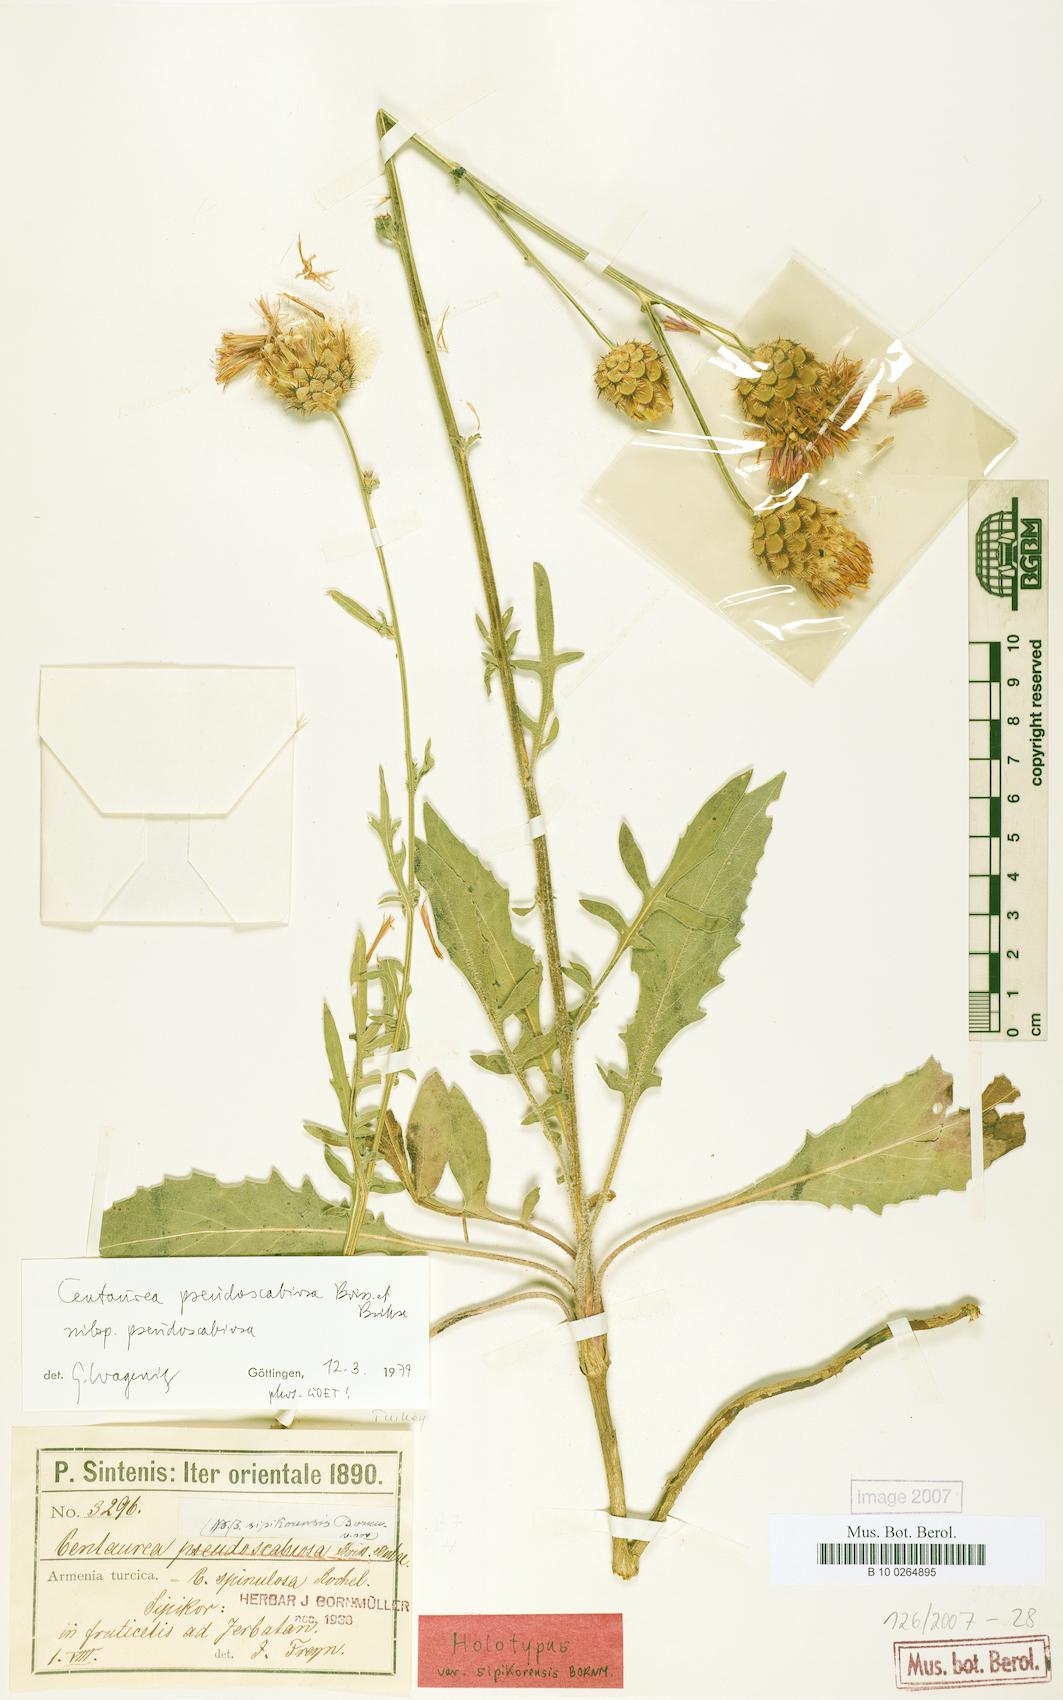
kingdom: Plantae
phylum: Tracheophyta
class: Magnoliopsida
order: Asterales
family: Asteraceae
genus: Centaurea
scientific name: Centaurea pseudoscabiosa
